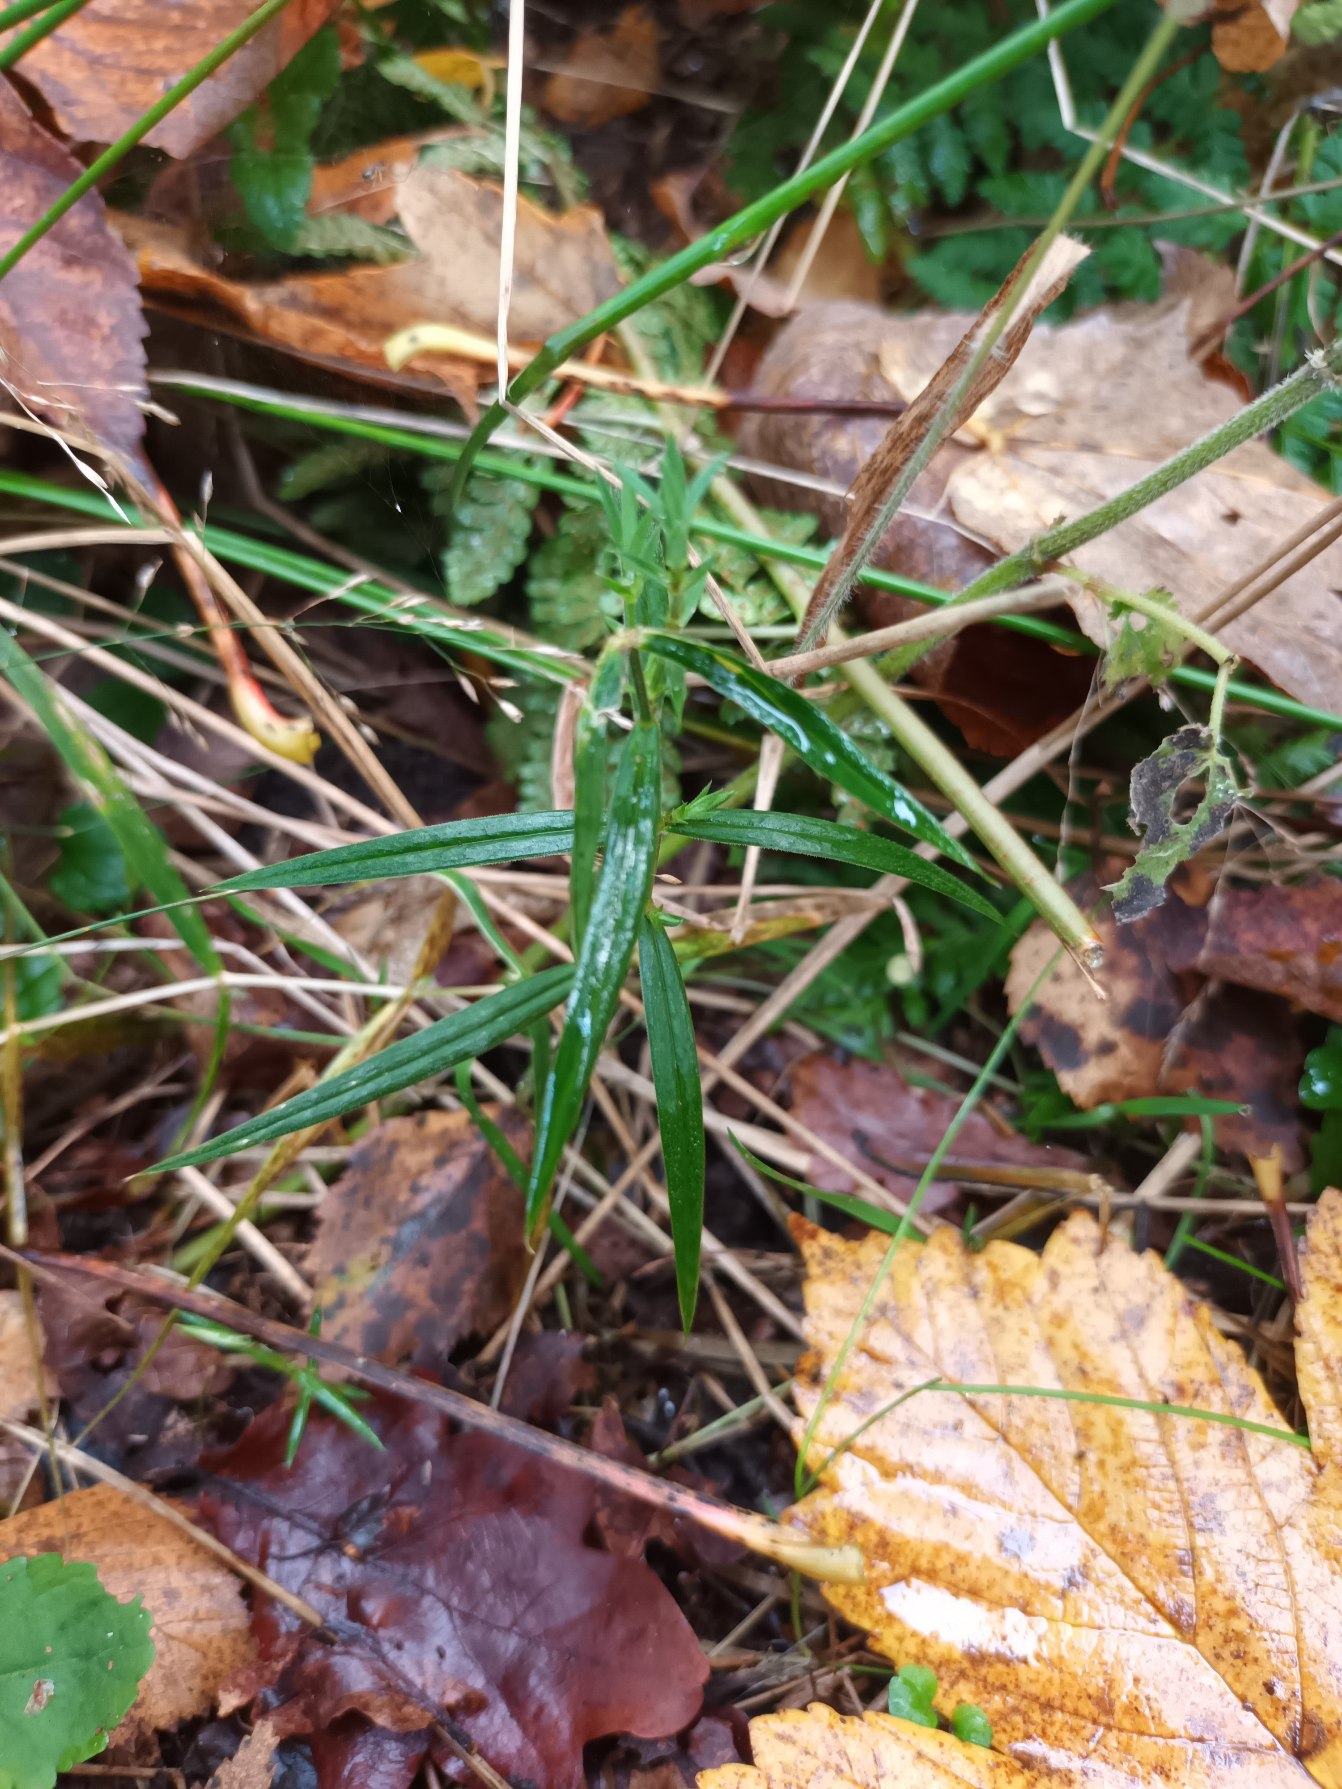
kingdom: Plantae
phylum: Tracheophyta
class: Magnoliopsida
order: Caryophyllales
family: Caryophyllaceae
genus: Rabelera
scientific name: Rabelera holostea
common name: Stor fladstjerne
